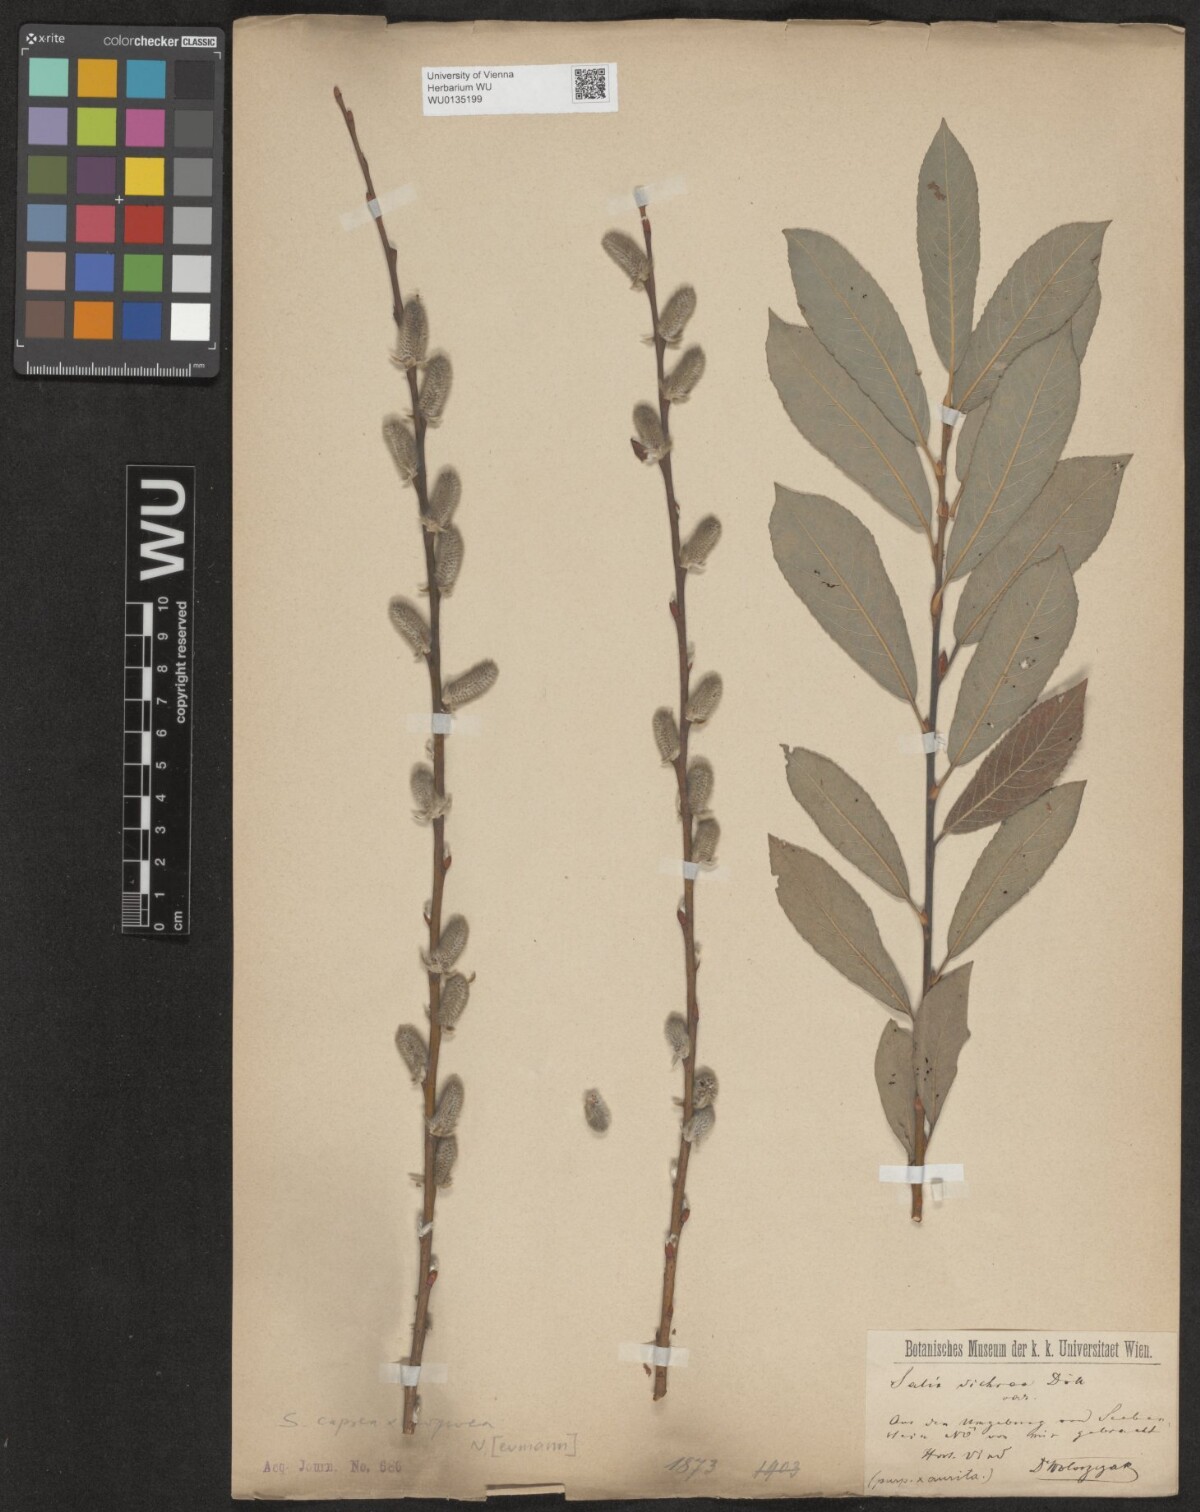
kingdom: Plantae
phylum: Tracheophyta
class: Magnoliopsida
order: Malpighiales
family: Salicaceae
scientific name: Salicaceae
